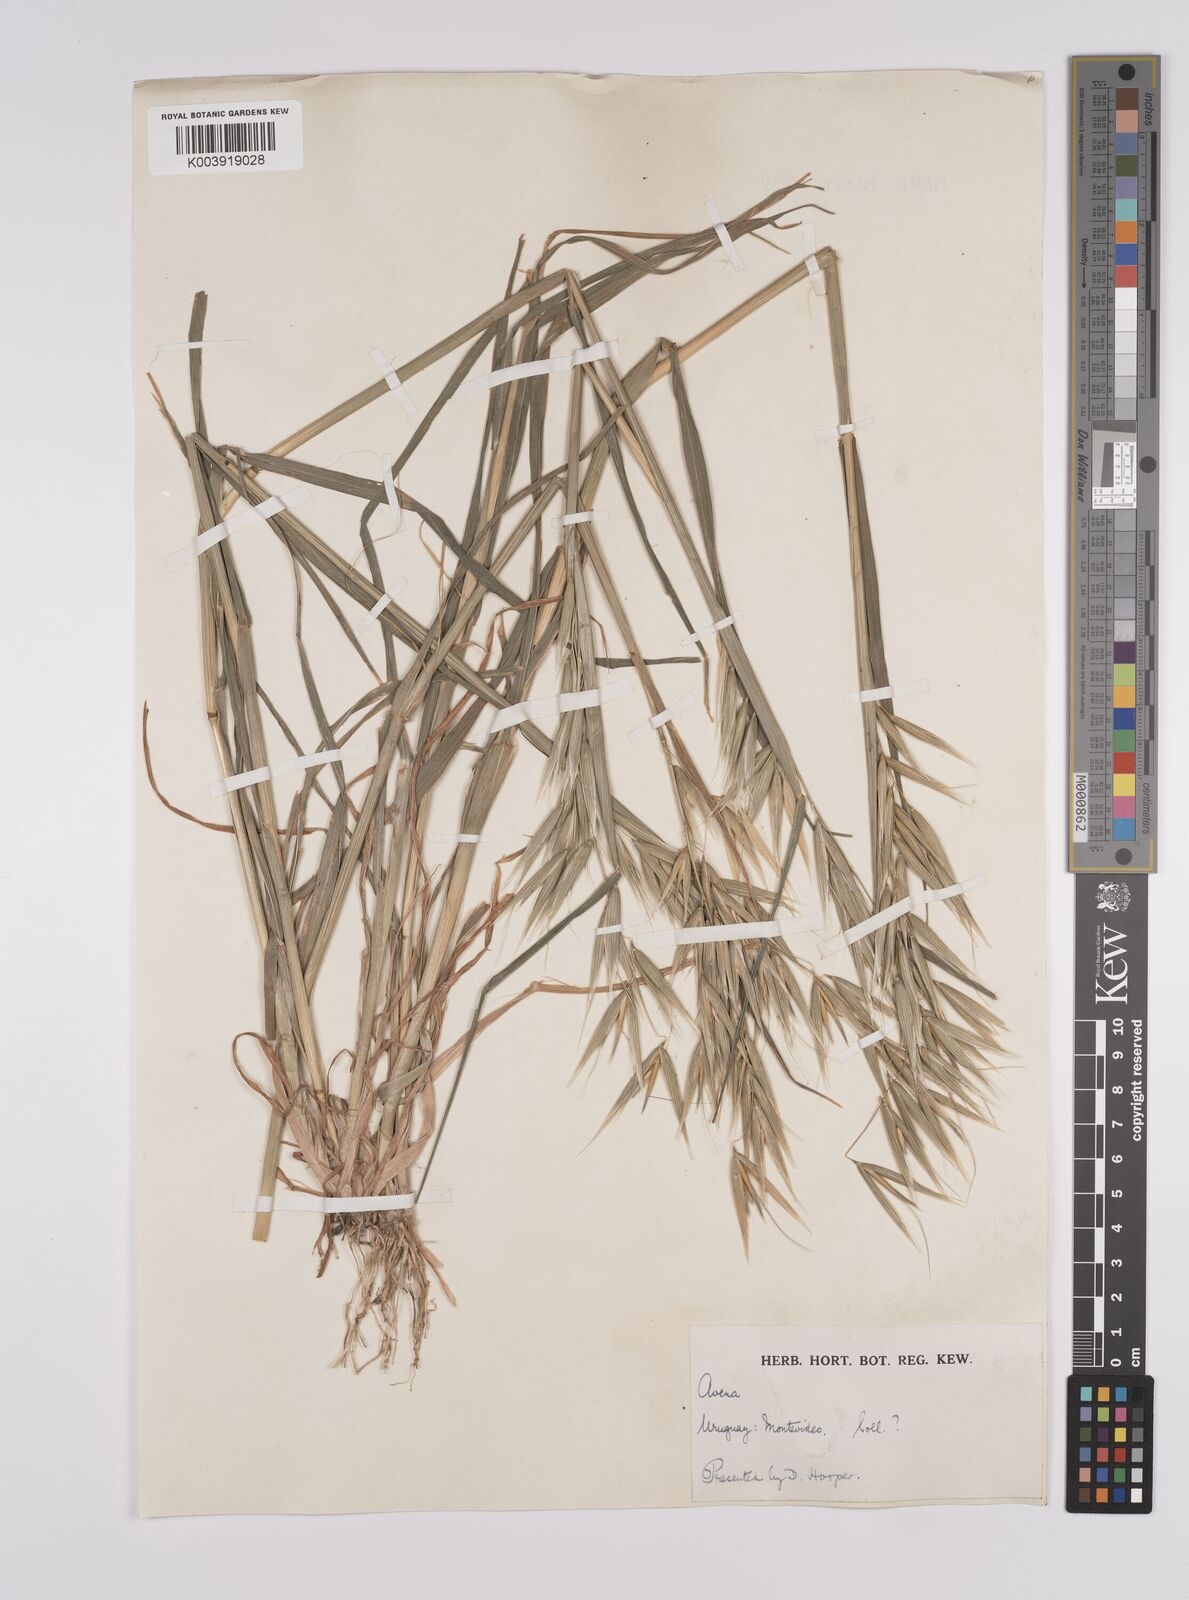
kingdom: Plantae
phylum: Tracheophyta
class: Liliopsida
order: Poales
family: Poaceae
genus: Avena
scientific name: Avena byzantina
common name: Algerian oat
